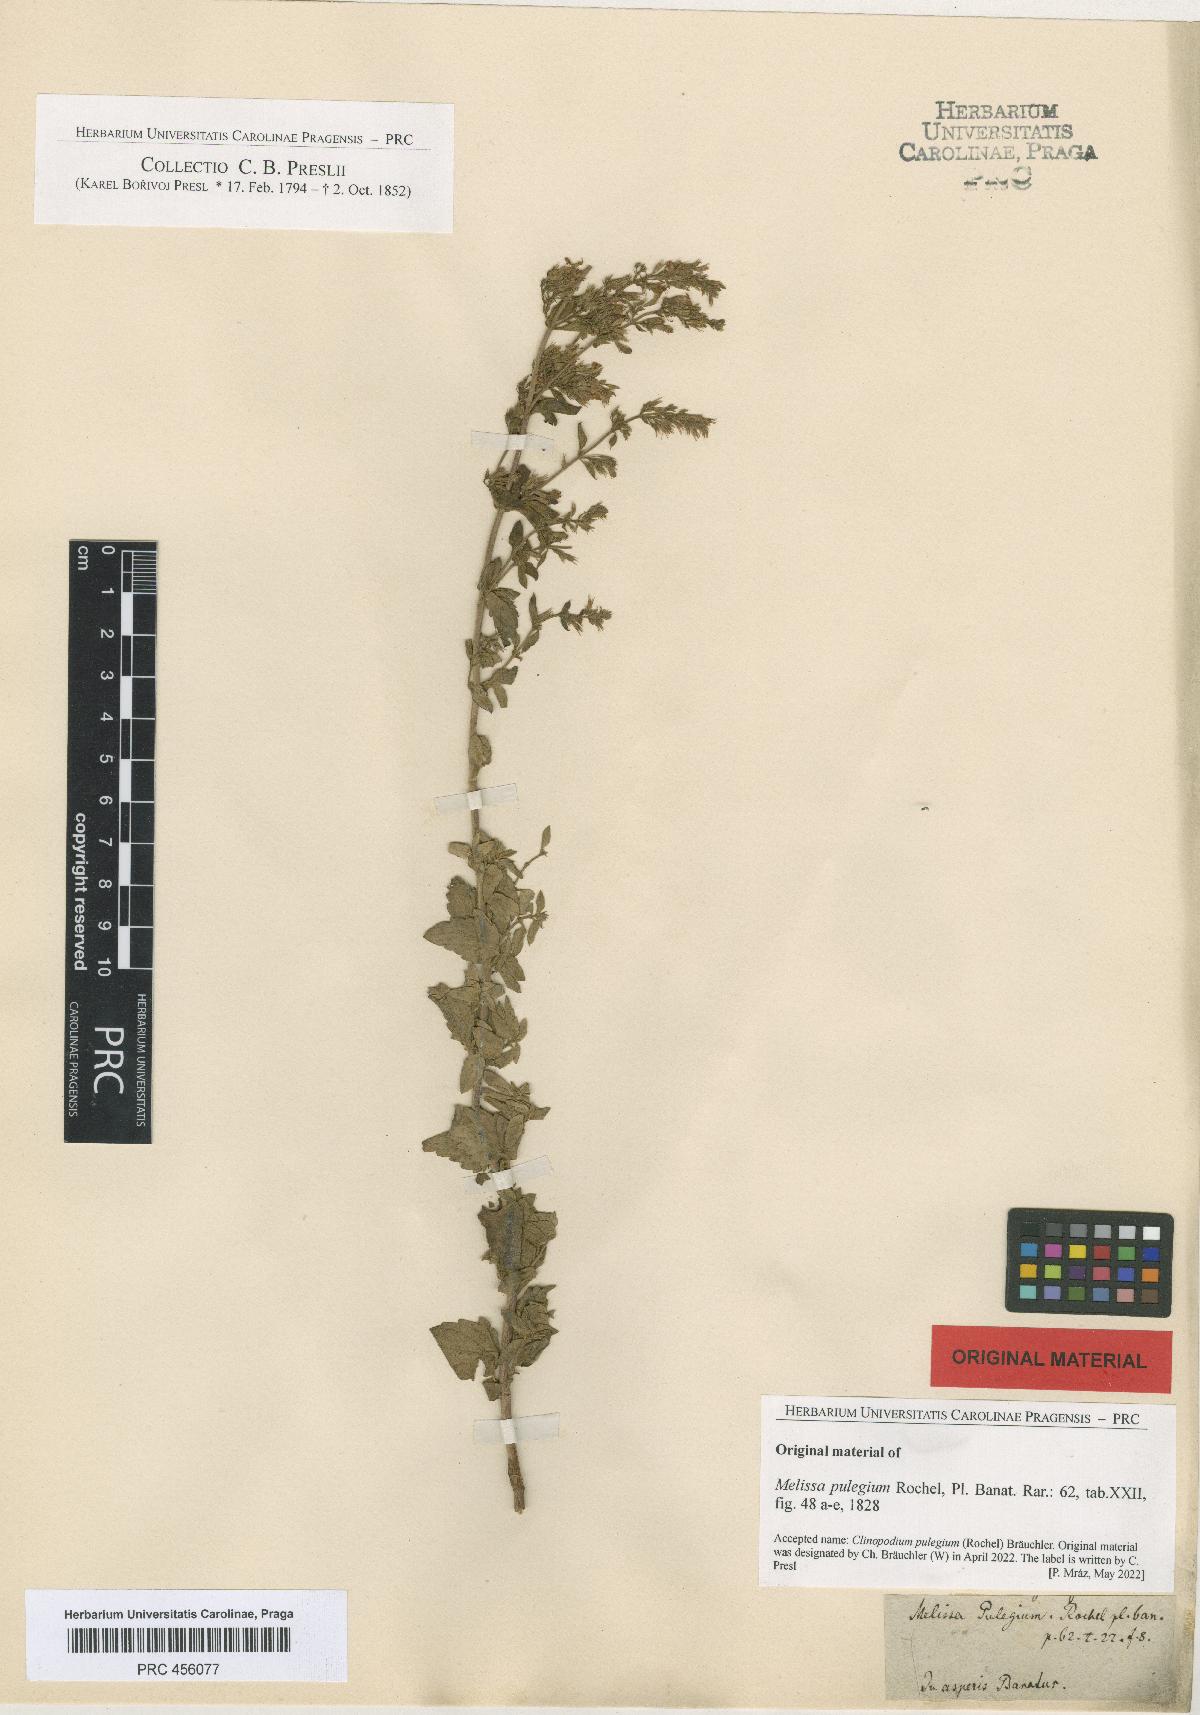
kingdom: Plantae
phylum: Tracheophyta
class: Magnoliopsida
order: Lamiales
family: Lamiaceae
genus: Clinopodium
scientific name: Clinopodium pulegium
